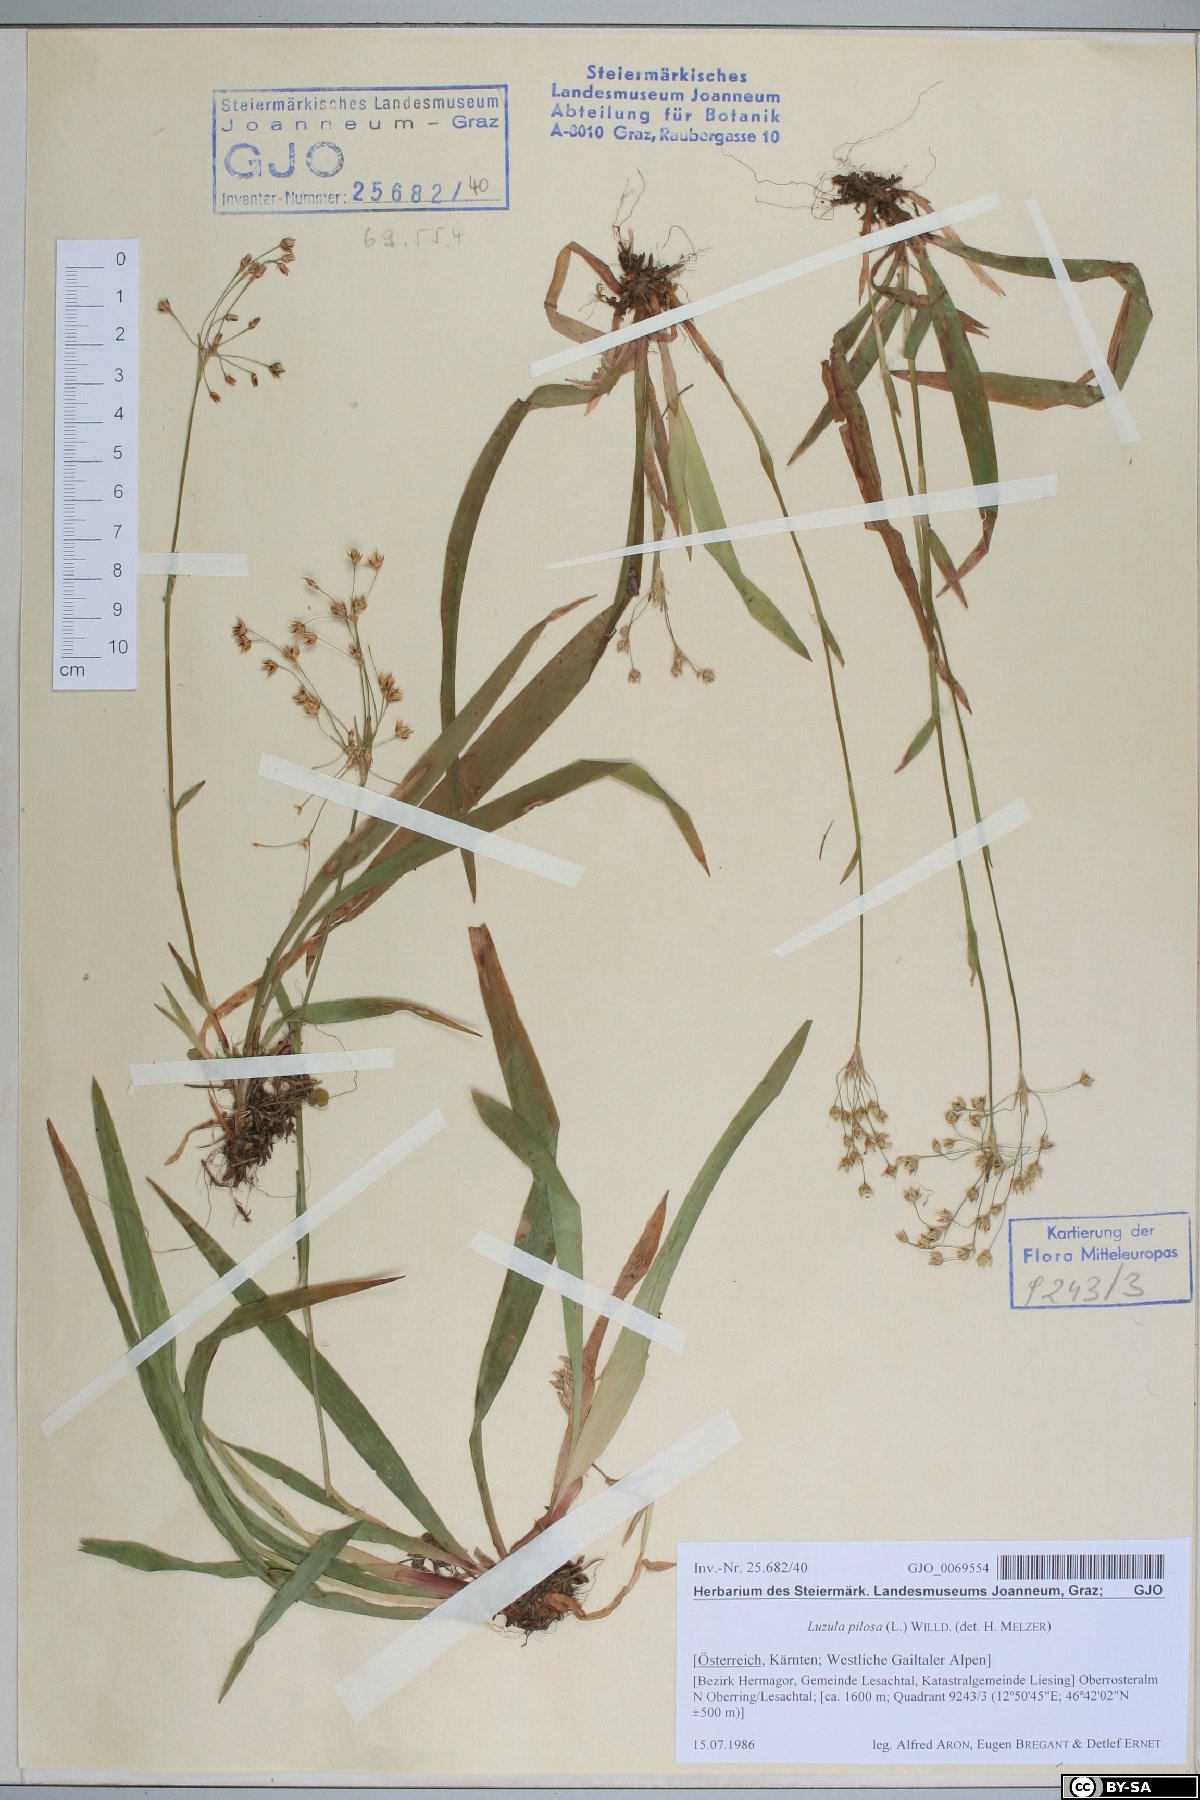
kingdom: Plantae
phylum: Tracheophyta
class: Liliopsida
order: Poales
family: Juncaceae
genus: Luzula
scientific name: Luzula pilosa
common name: Hairy wood-rush
